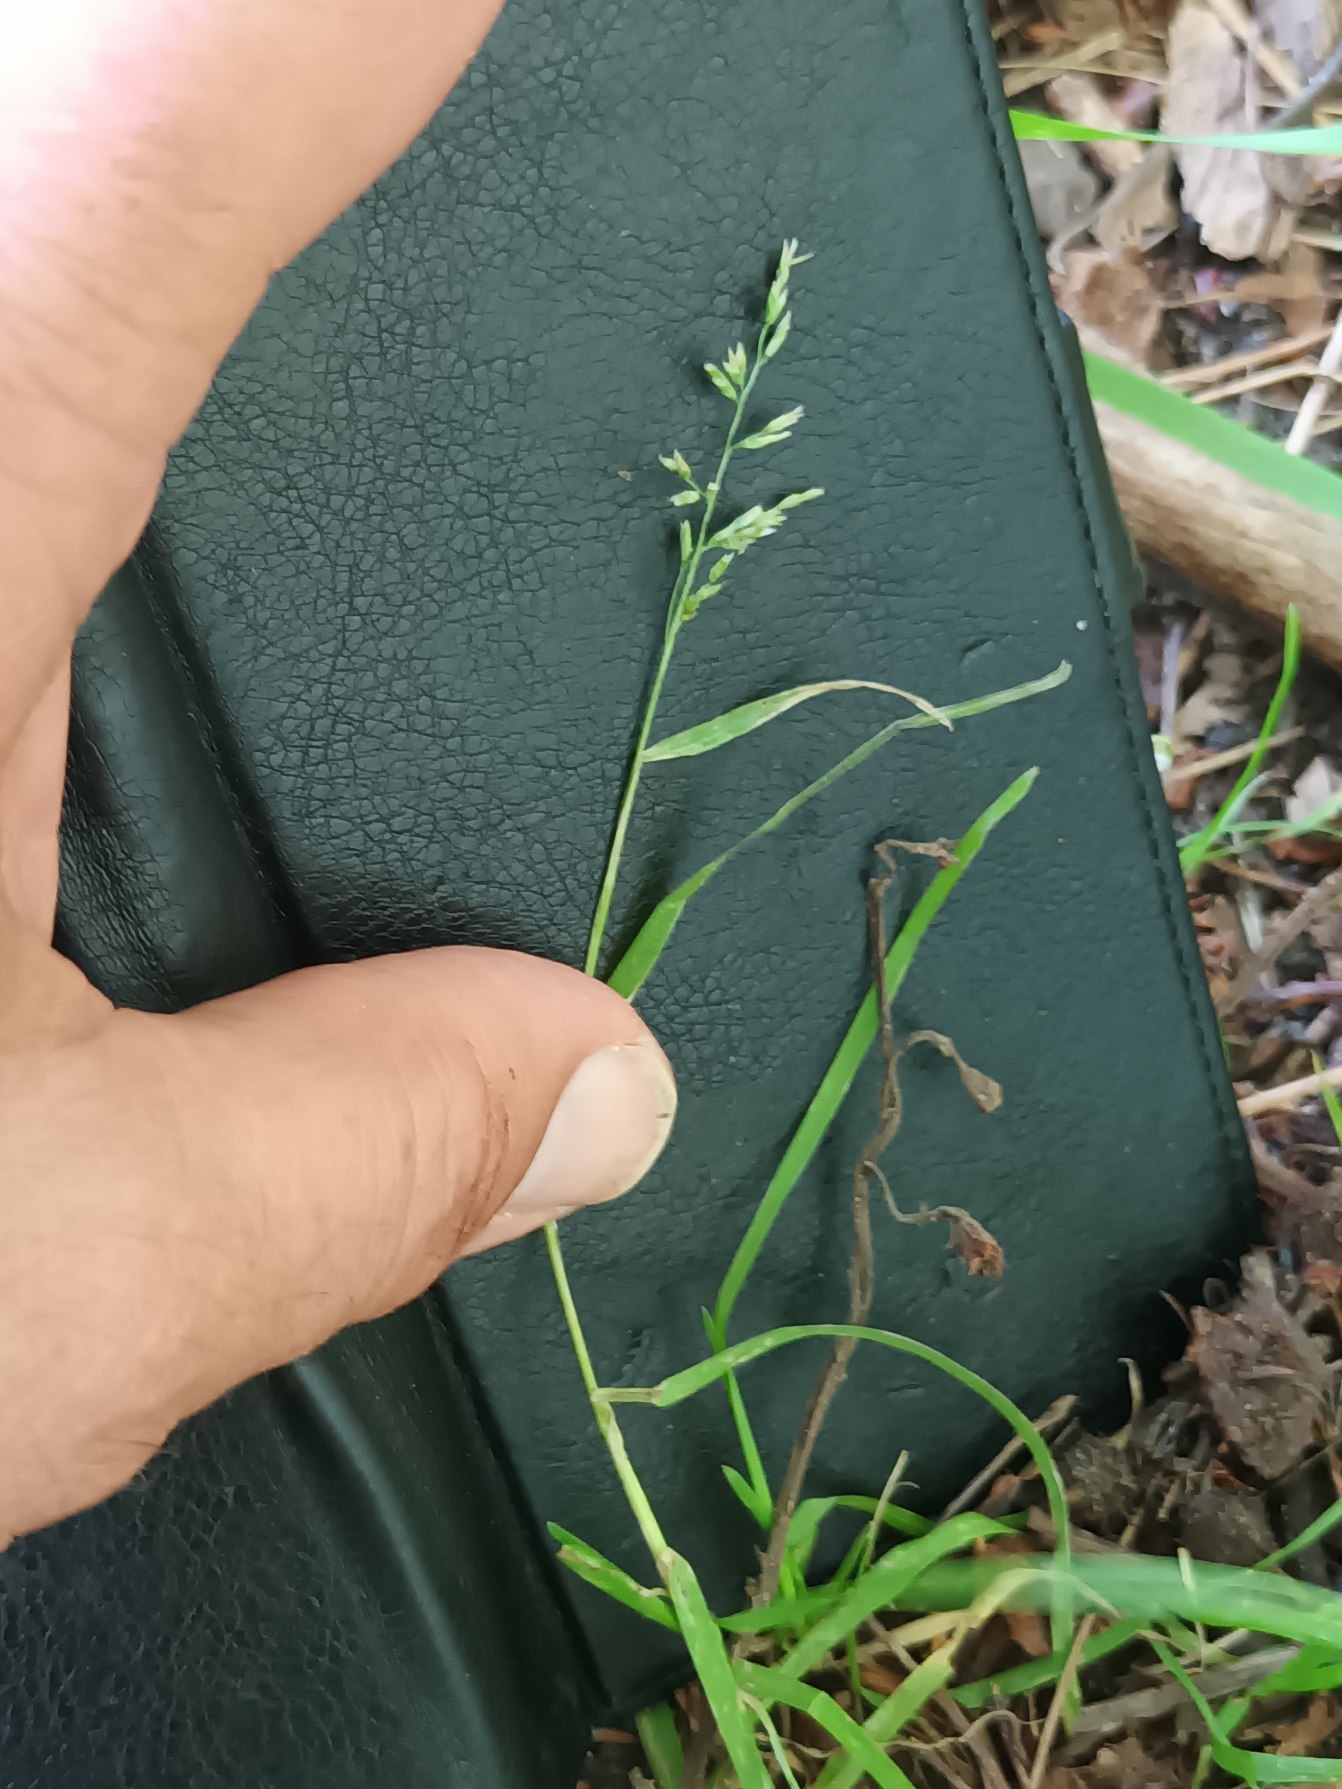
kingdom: Plantae
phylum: Tracheophyta
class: Liliopsida
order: Poales
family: Poaceae
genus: Poa
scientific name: Poa annua
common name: Enårig rapgræs
